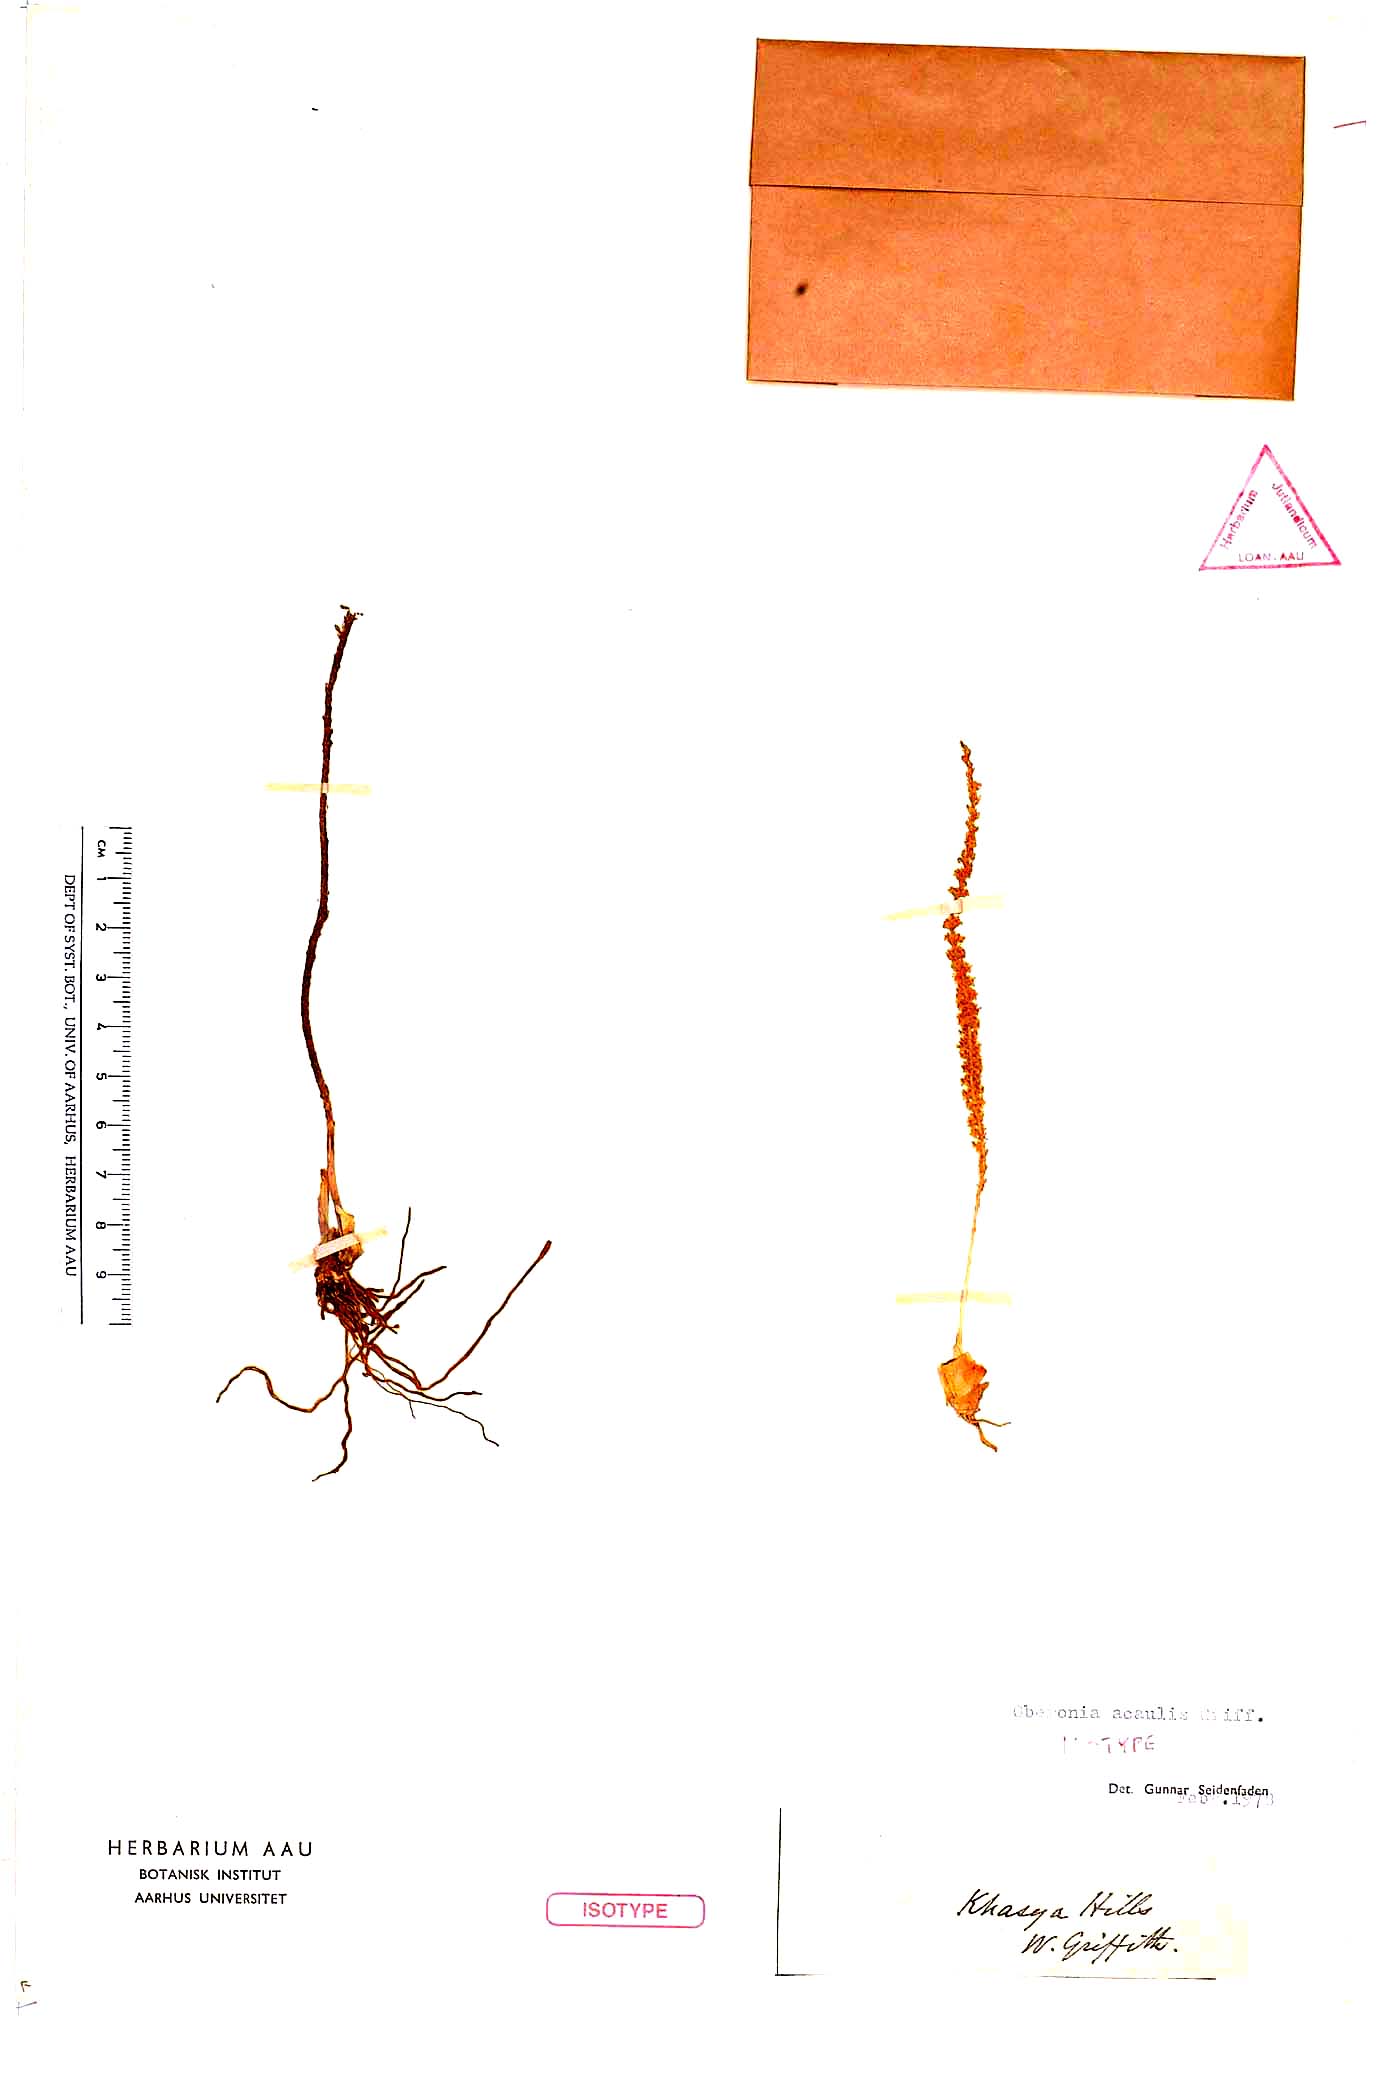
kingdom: Plantae
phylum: Tracheophyta
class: Liliopsida
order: Asparagales
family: Orchidaceae
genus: Oberonia
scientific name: Oberonia acaulis
